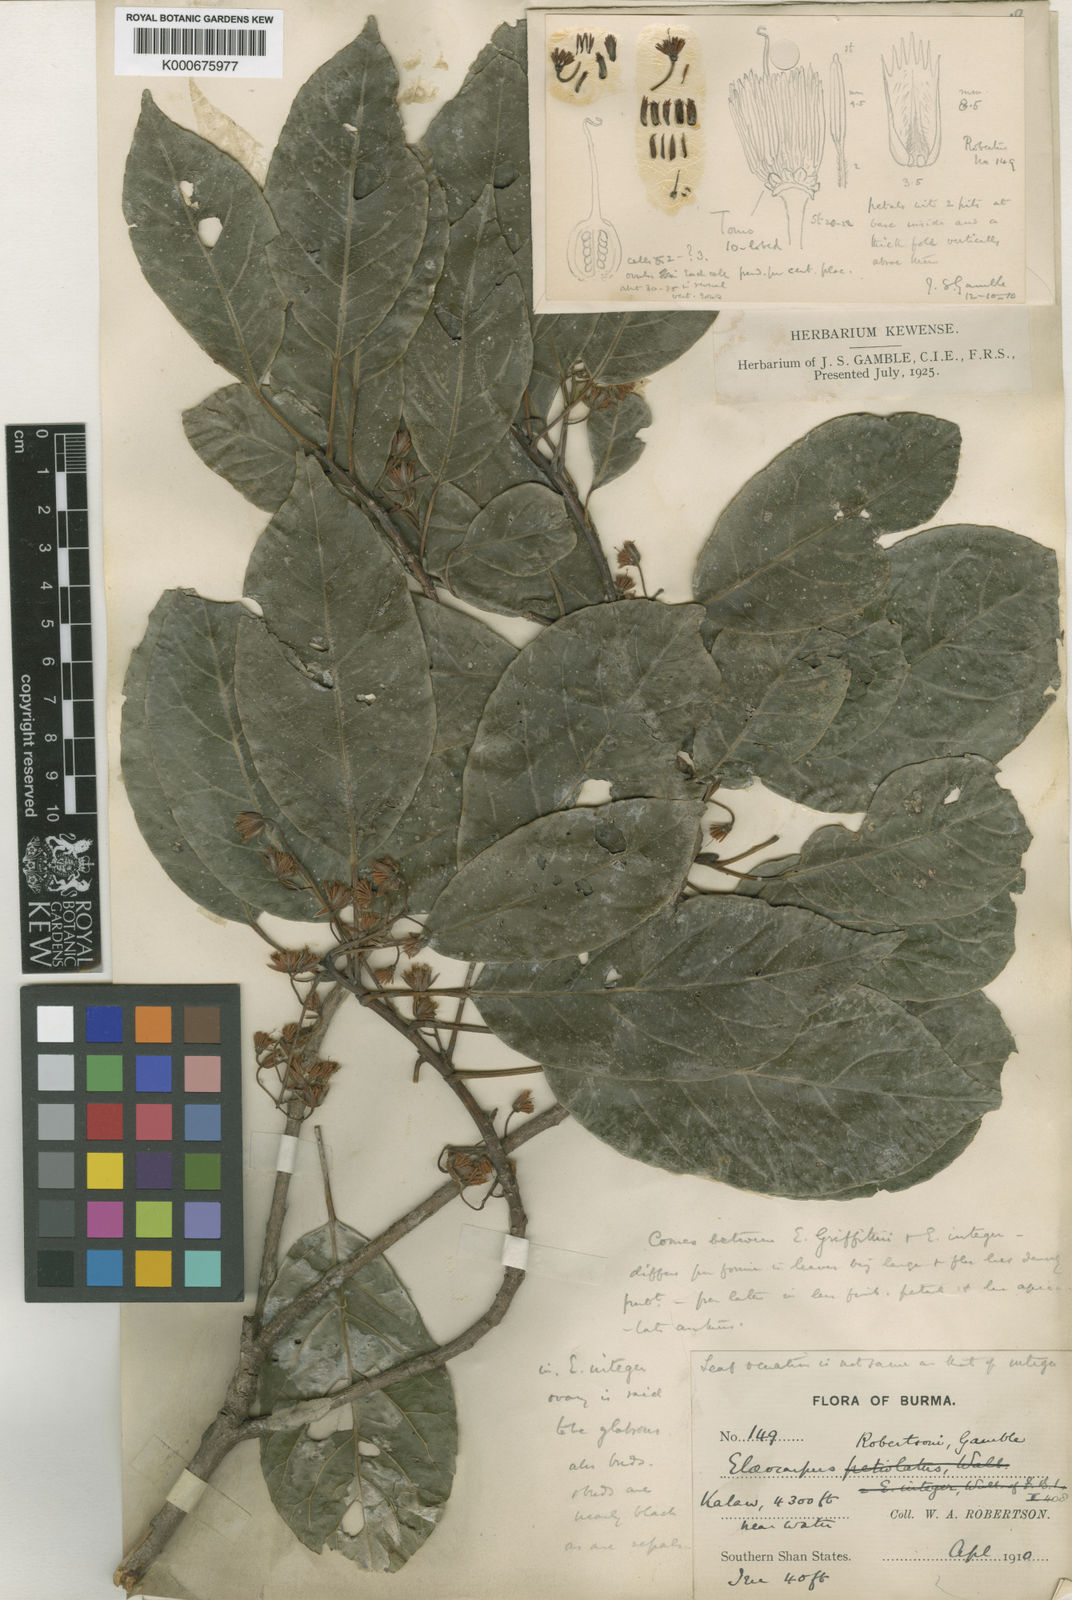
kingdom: Plantae
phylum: Tracheophyta
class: Magnoliopsida
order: Oxalidales
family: Elaeocarpaceae
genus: Elaeocarpus
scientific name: Elaeocarpus
